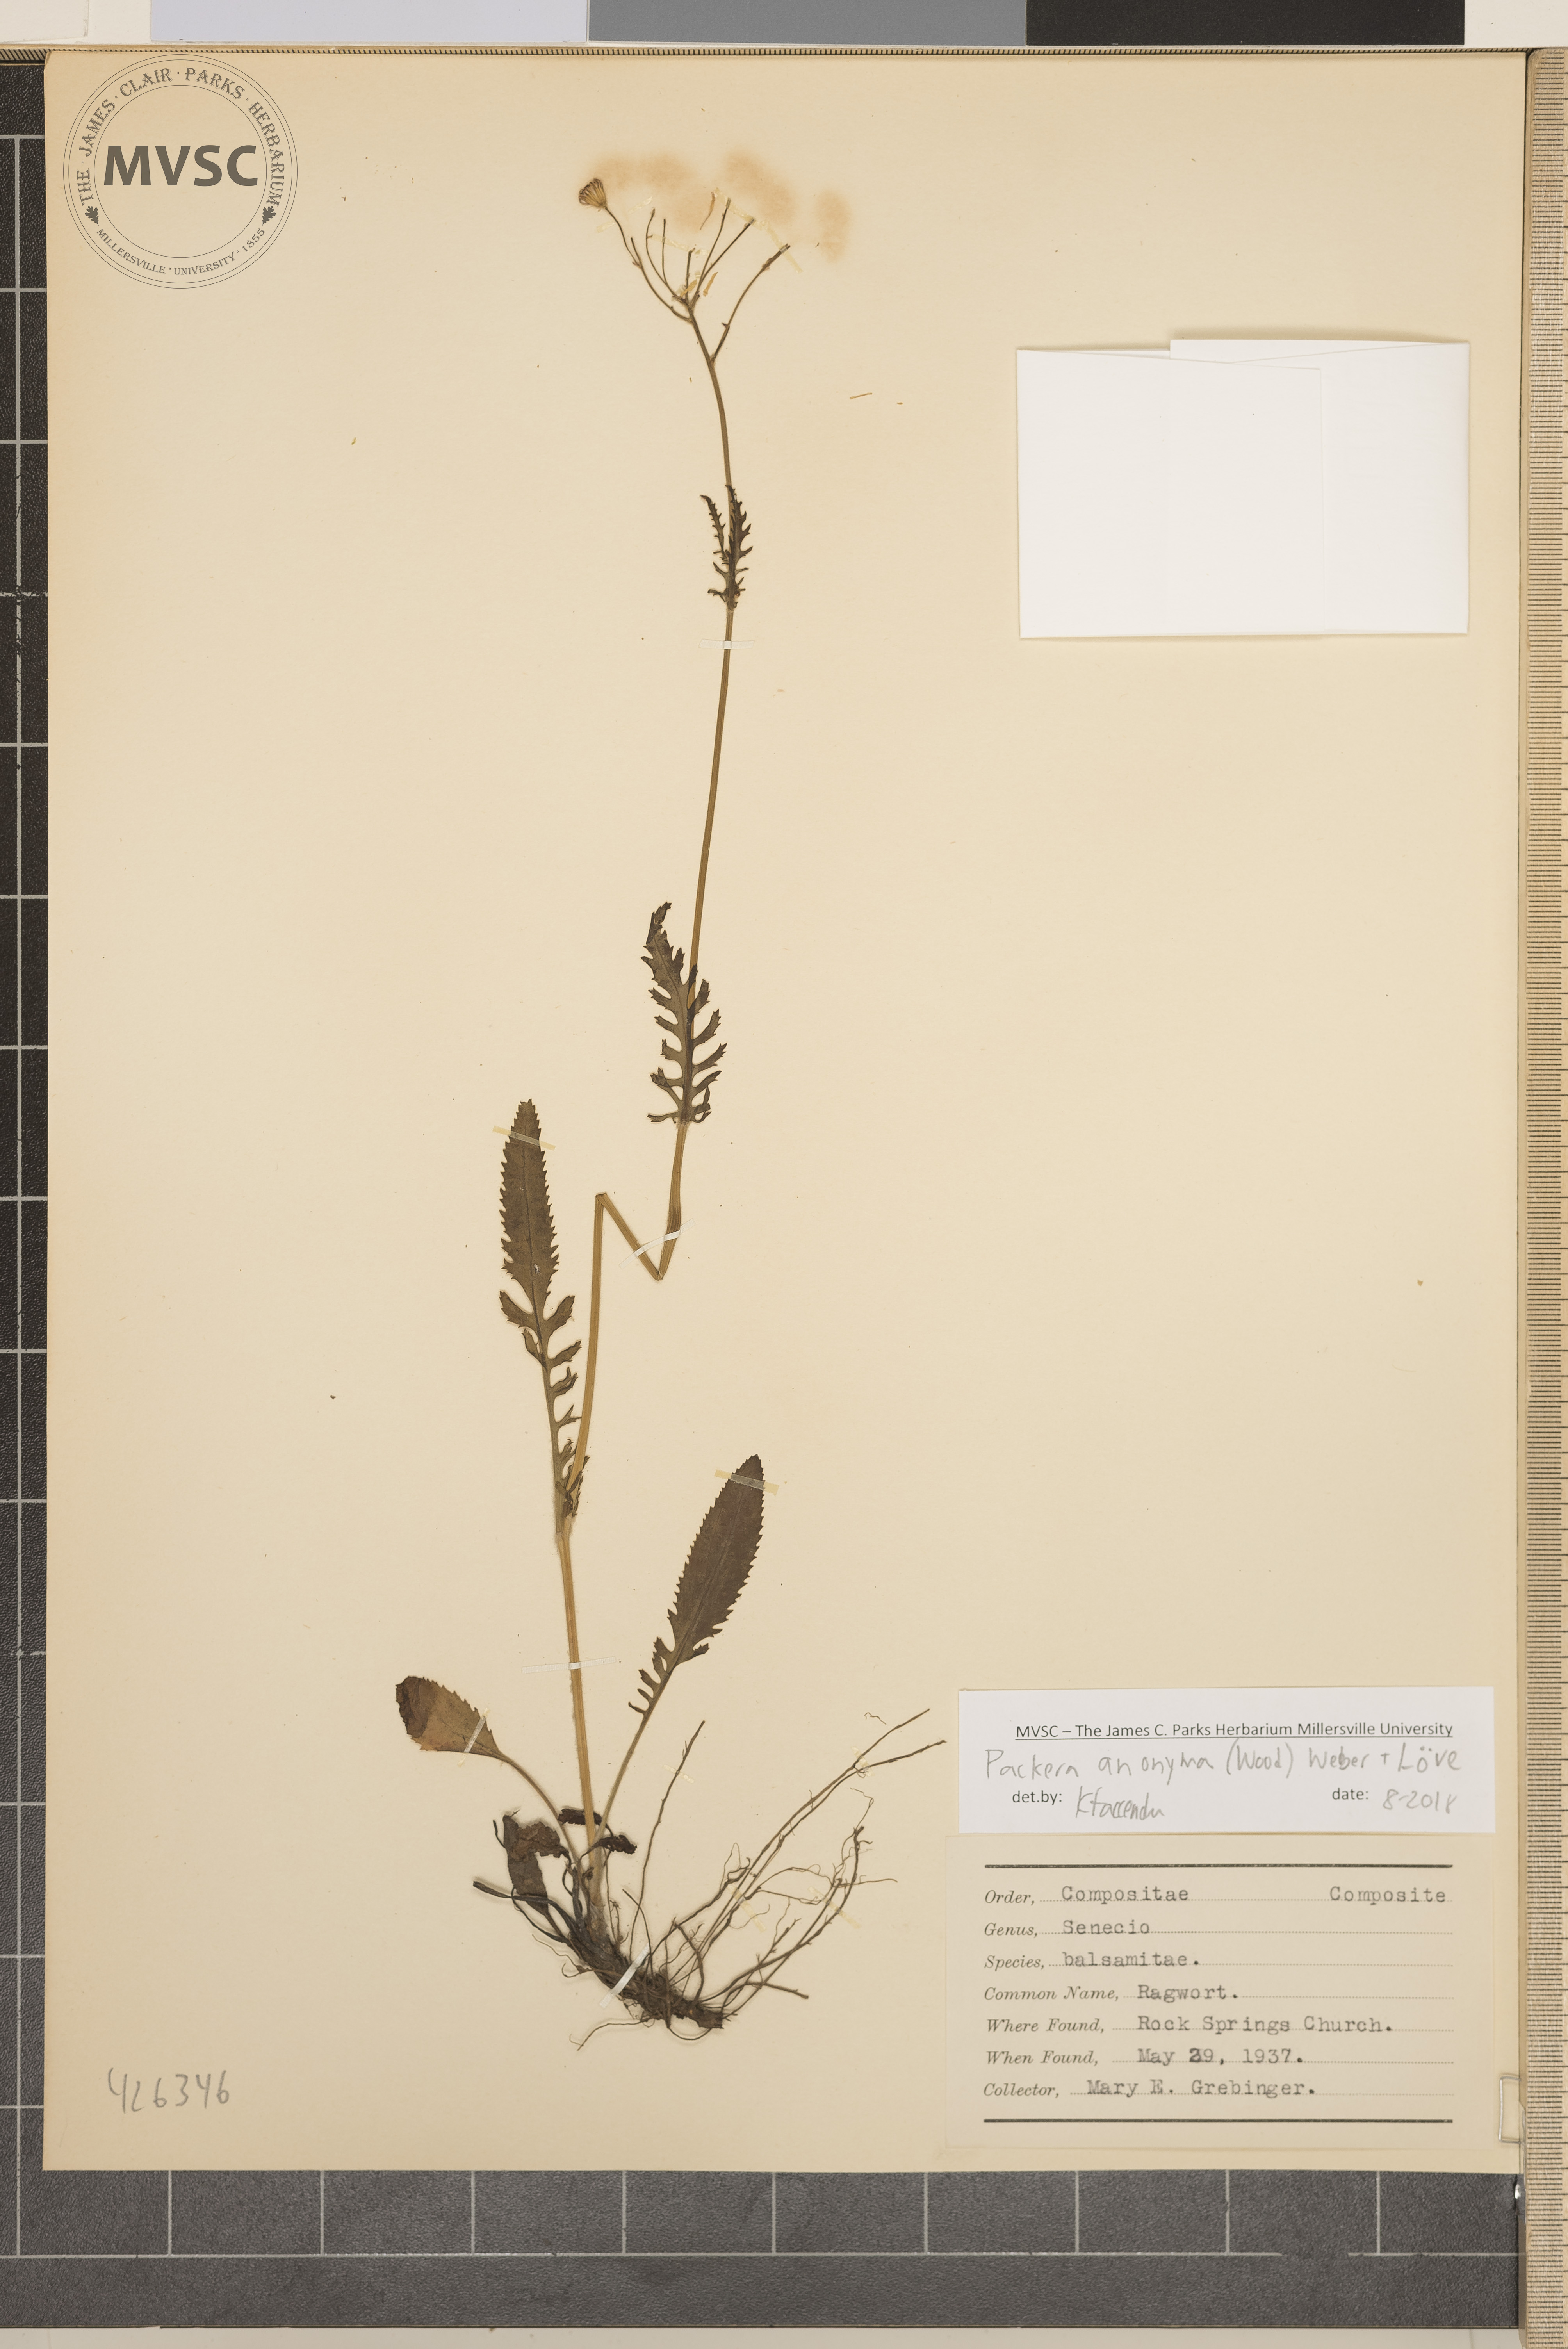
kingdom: Plantae
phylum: Tracheophyta
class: Magnoliopsida
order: Asterales
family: Asteraceae
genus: Packera
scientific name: Packera anonyma
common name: Ragwort
